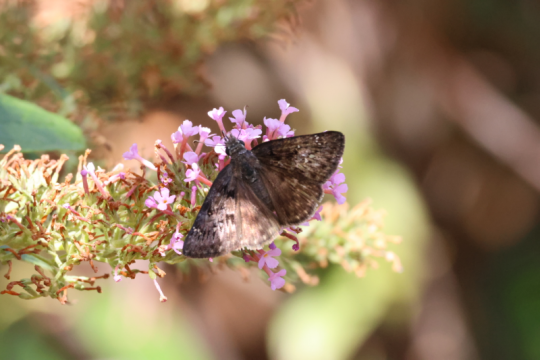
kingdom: Animalia
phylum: Arthropoda
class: Insecta
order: Lepidoptera
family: Hesperiidae
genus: Erynnis
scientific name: Erynnis meridianus
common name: Meridian Duskywing
